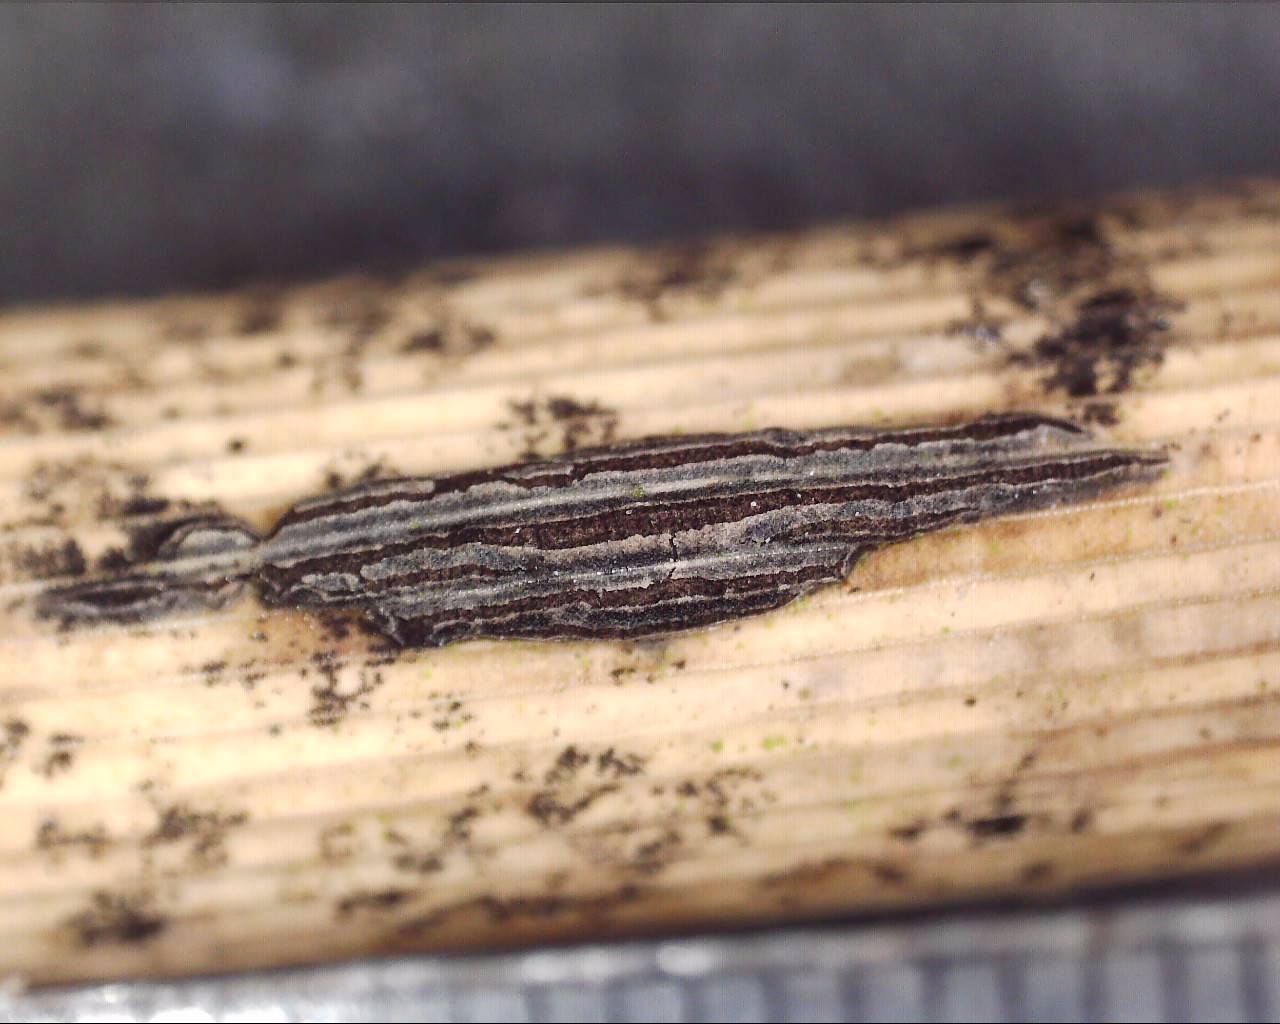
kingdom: Fungi
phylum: Ascomycota
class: Dothideomycetes
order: Dothideales
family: Dothideaceae
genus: Scirrhia
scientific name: Scirrhia rimosa
